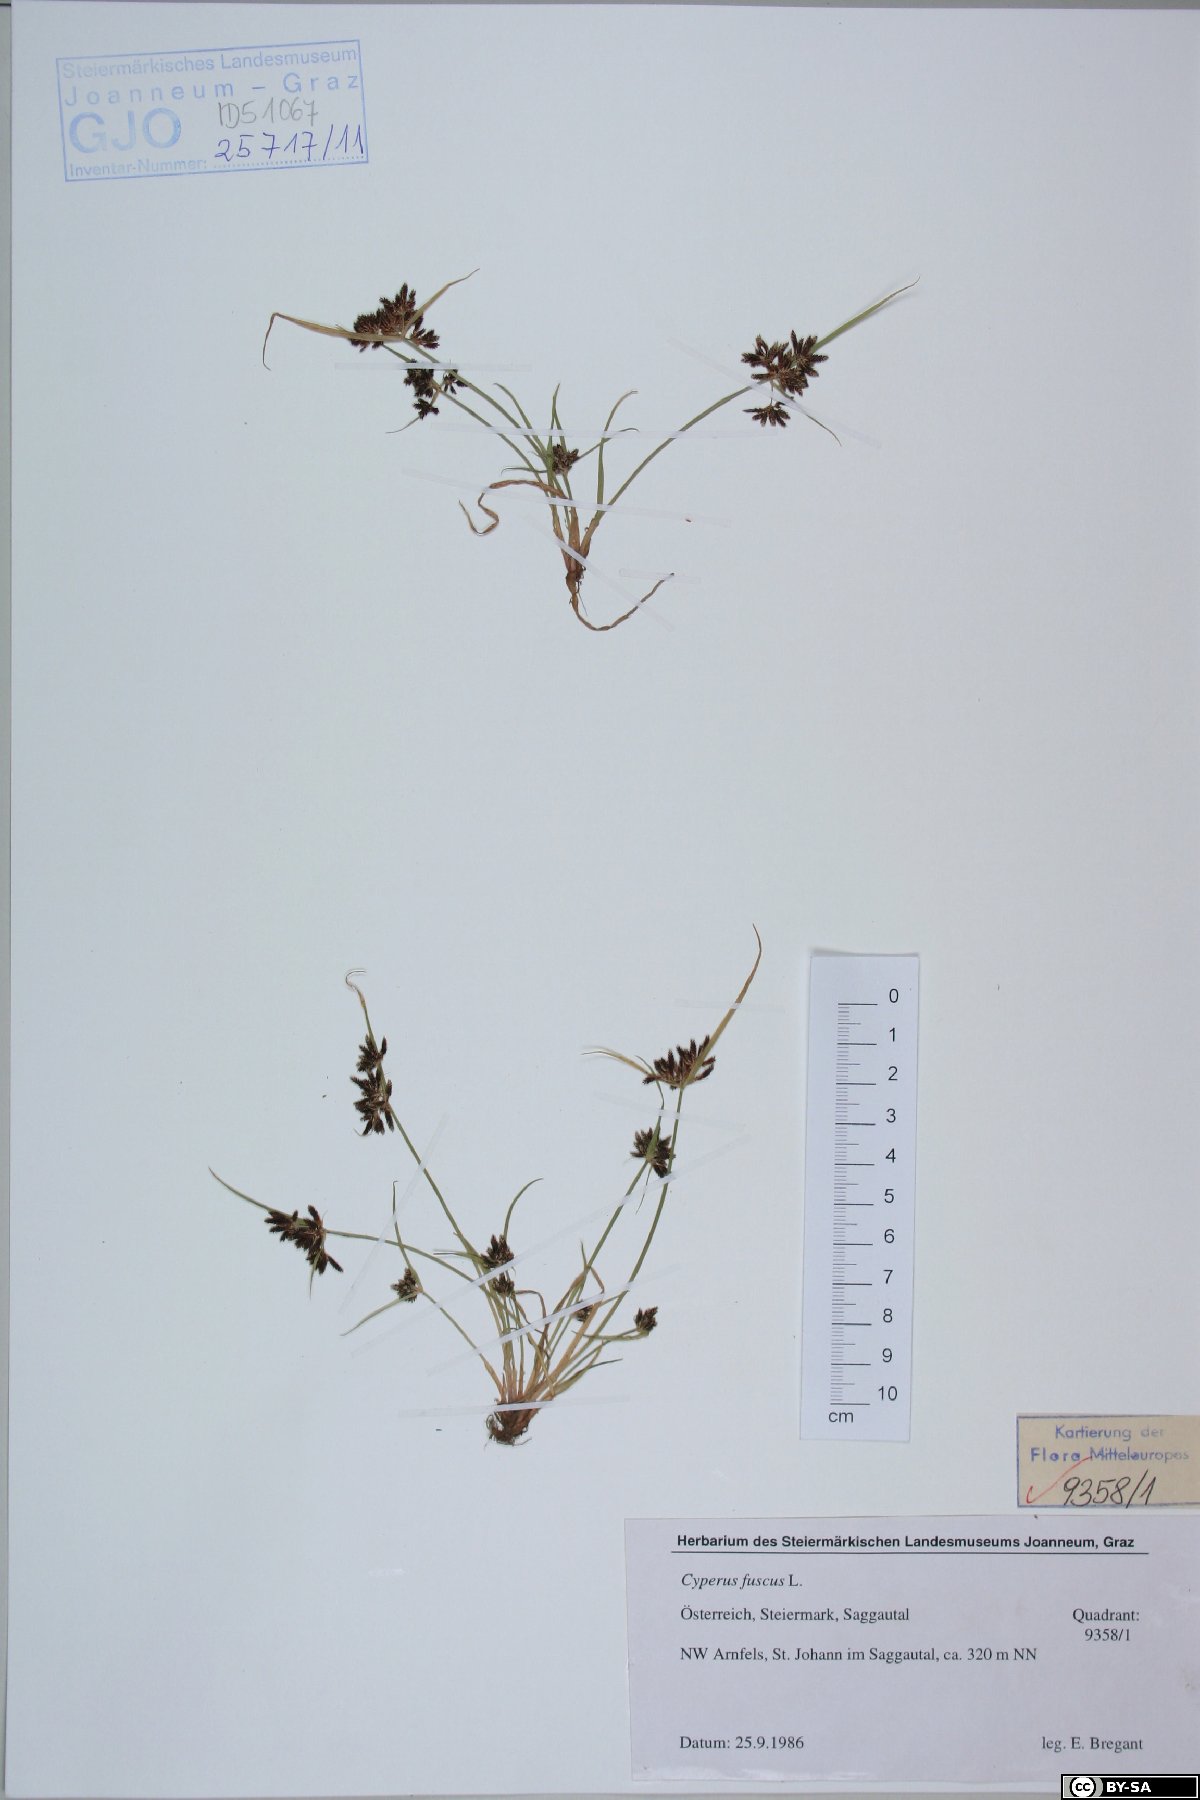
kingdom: Plantae
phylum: Tracheophyta
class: Liliopsida
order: Poales
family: Cyperaceae
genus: Cyperus
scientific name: Cyperus fuscus
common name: Brown galingale
